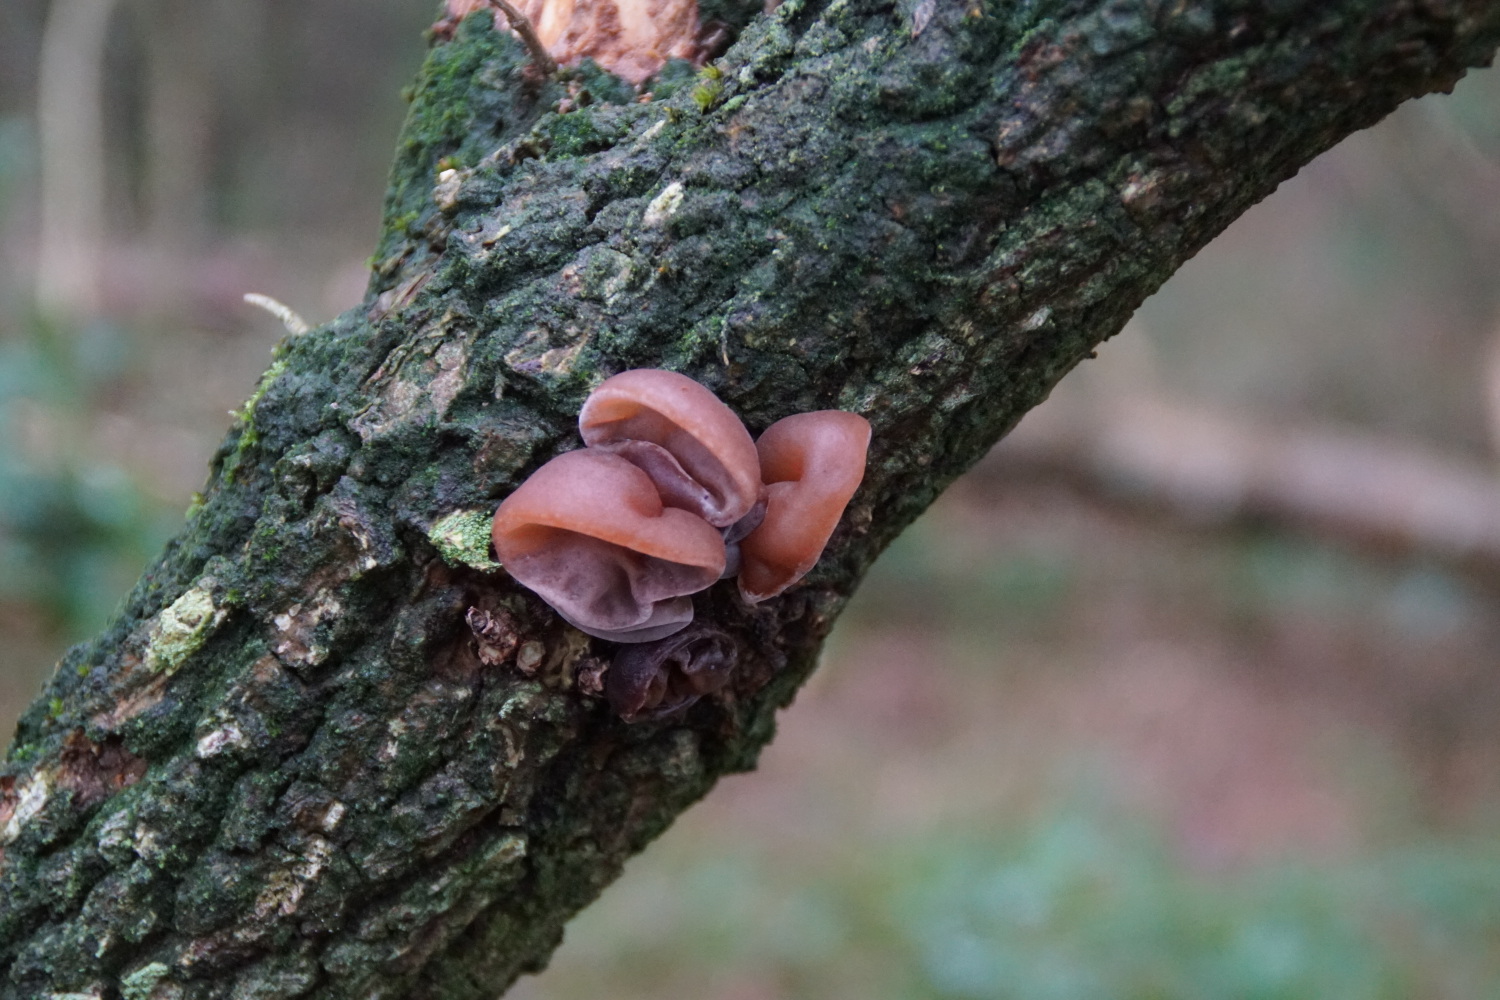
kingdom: Fungi
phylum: Basidiomycota
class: Agaricomycetes
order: Auriculariales
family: Auriculariaceae
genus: Auricularia
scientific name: Auricularia auricula-judae
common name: almindelig judasøre
